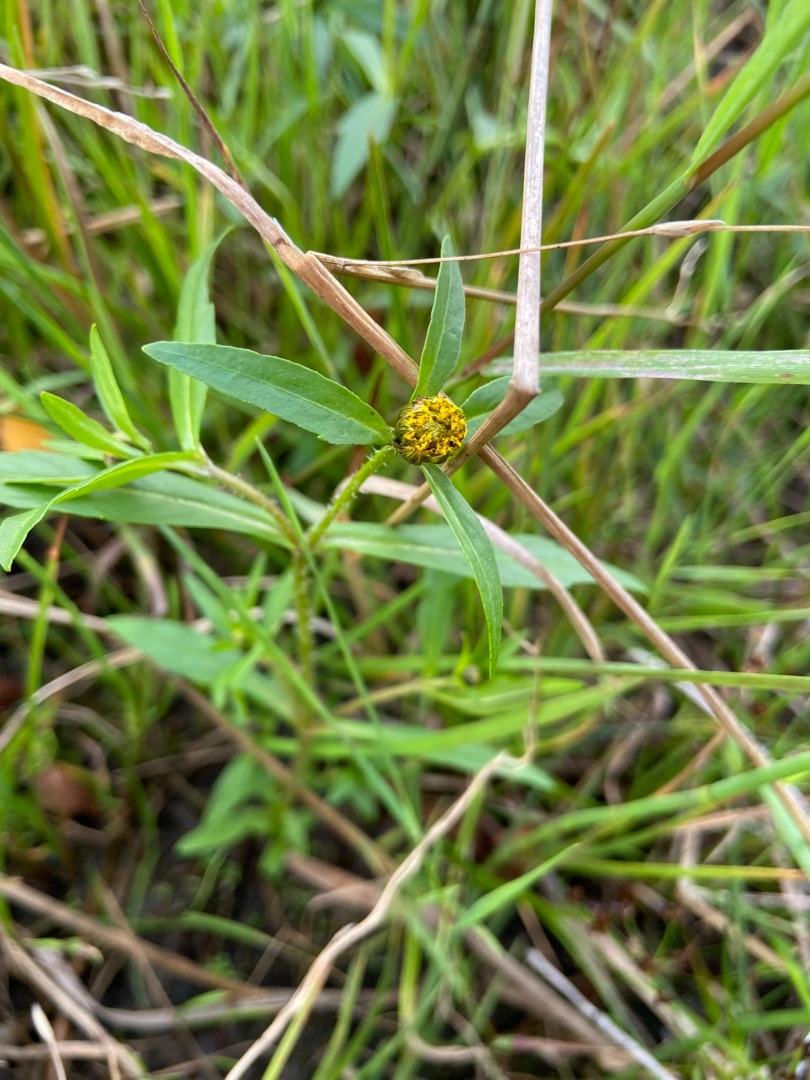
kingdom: Plantae
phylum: Tracheophyta
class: Magnoliopsida
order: Asterales
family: Asteraceae
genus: Bidens
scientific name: Bidens tripartita
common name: Fliget brøndsel
